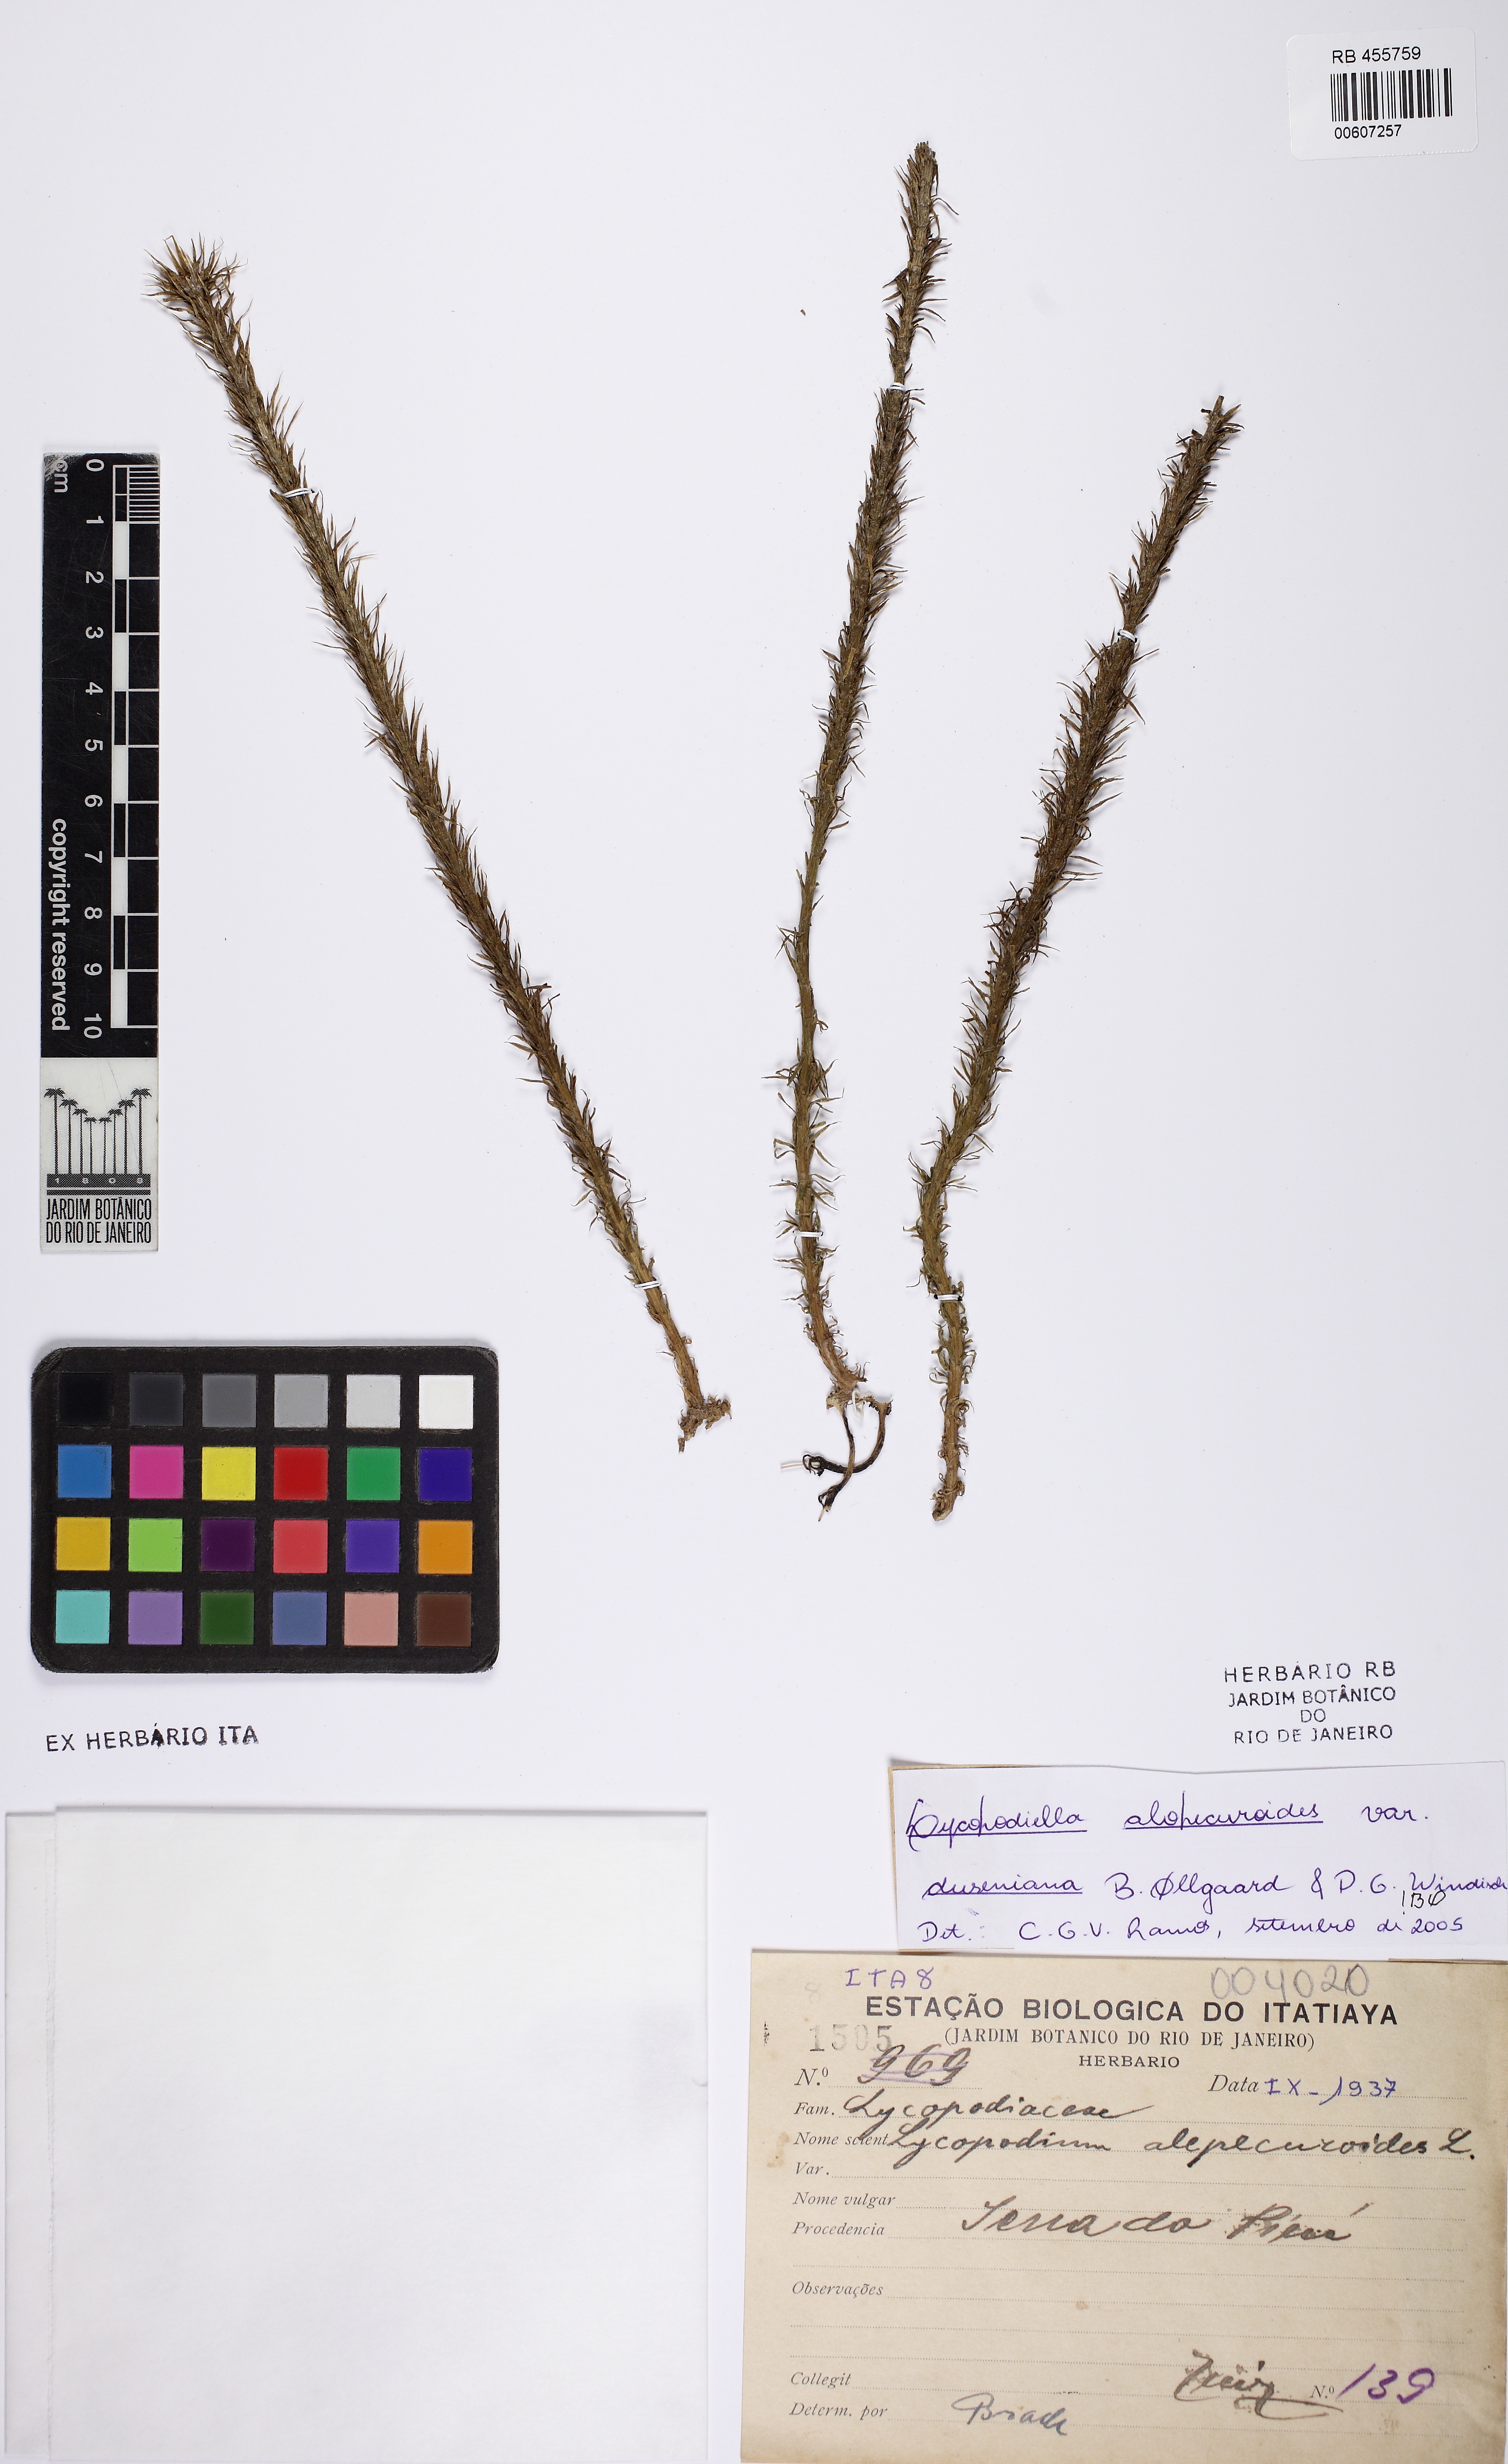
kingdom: Plantae
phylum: Tracheophyta
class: Lycopodiopsida
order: Lycopodiales
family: Lycopodiaceae
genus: Lycopodiella
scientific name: Lycopodiella duseniana
